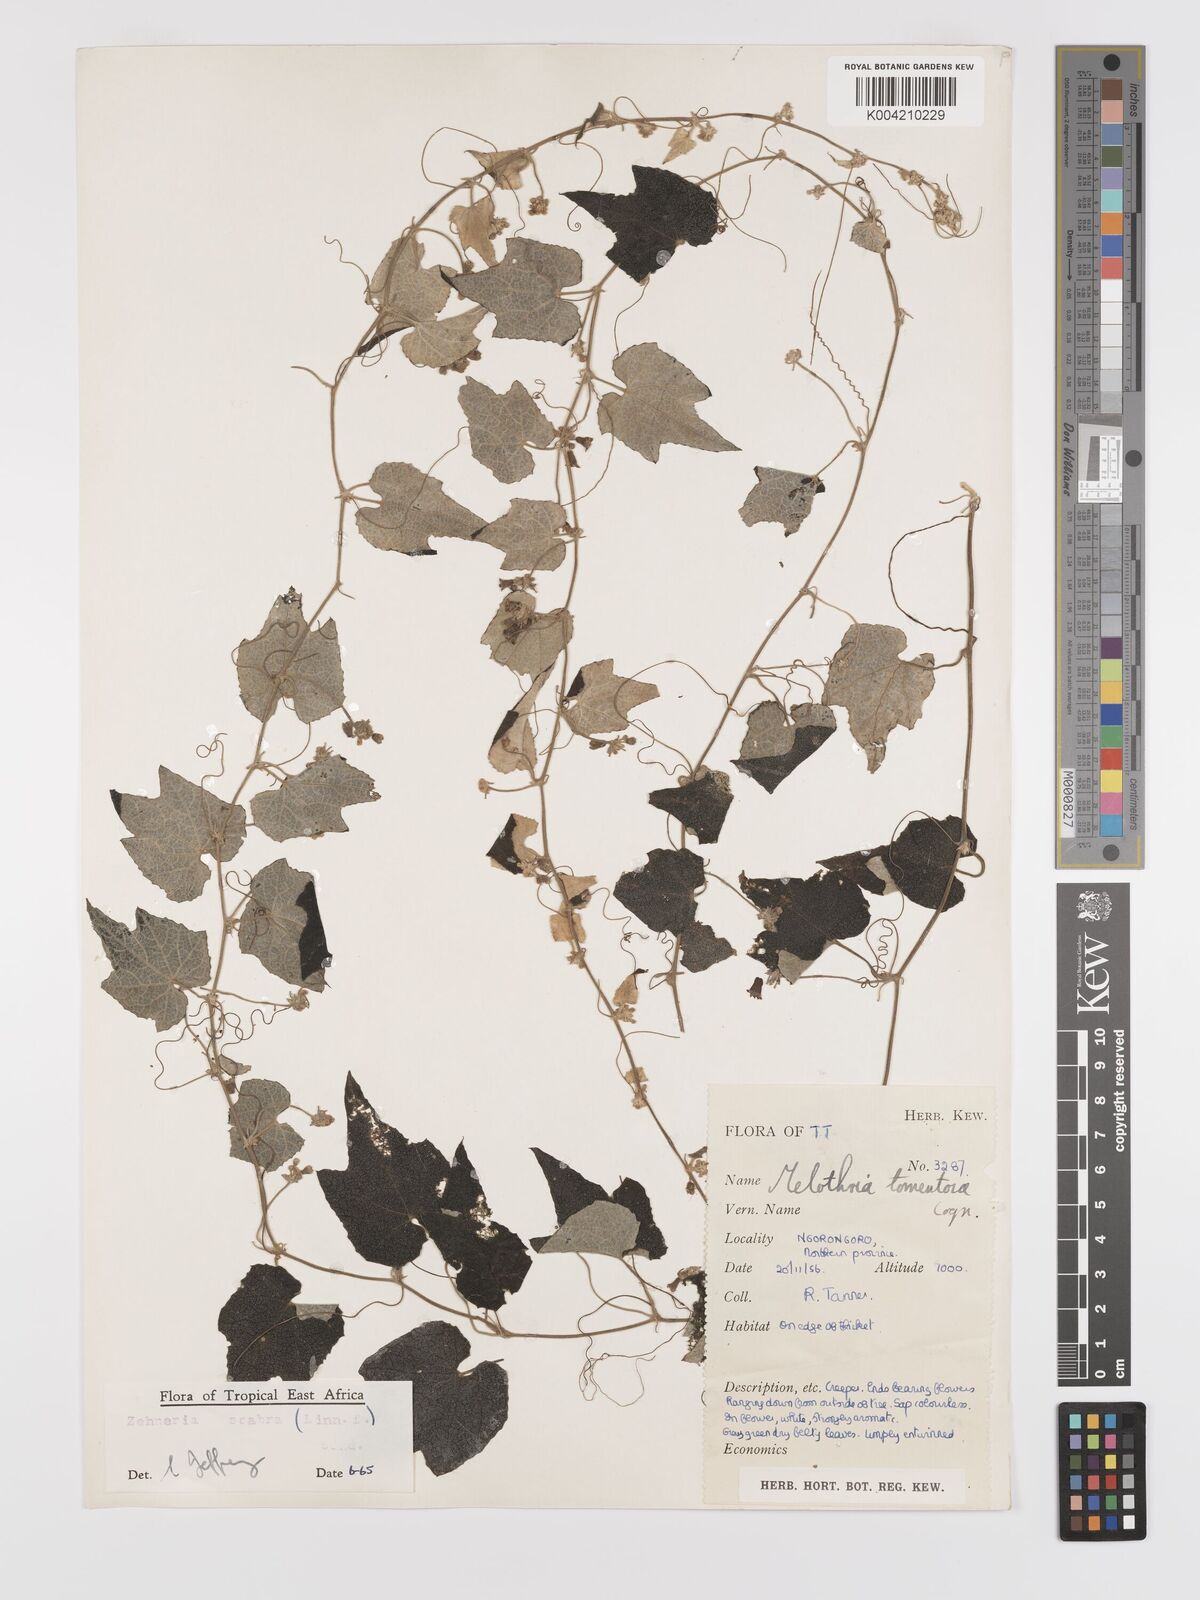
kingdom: Plantae
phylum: Tracheophyta
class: Magnoliopsida
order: Cucurbitales
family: Cucurbitaceae
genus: Zehneria
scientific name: Zehneria scabra
